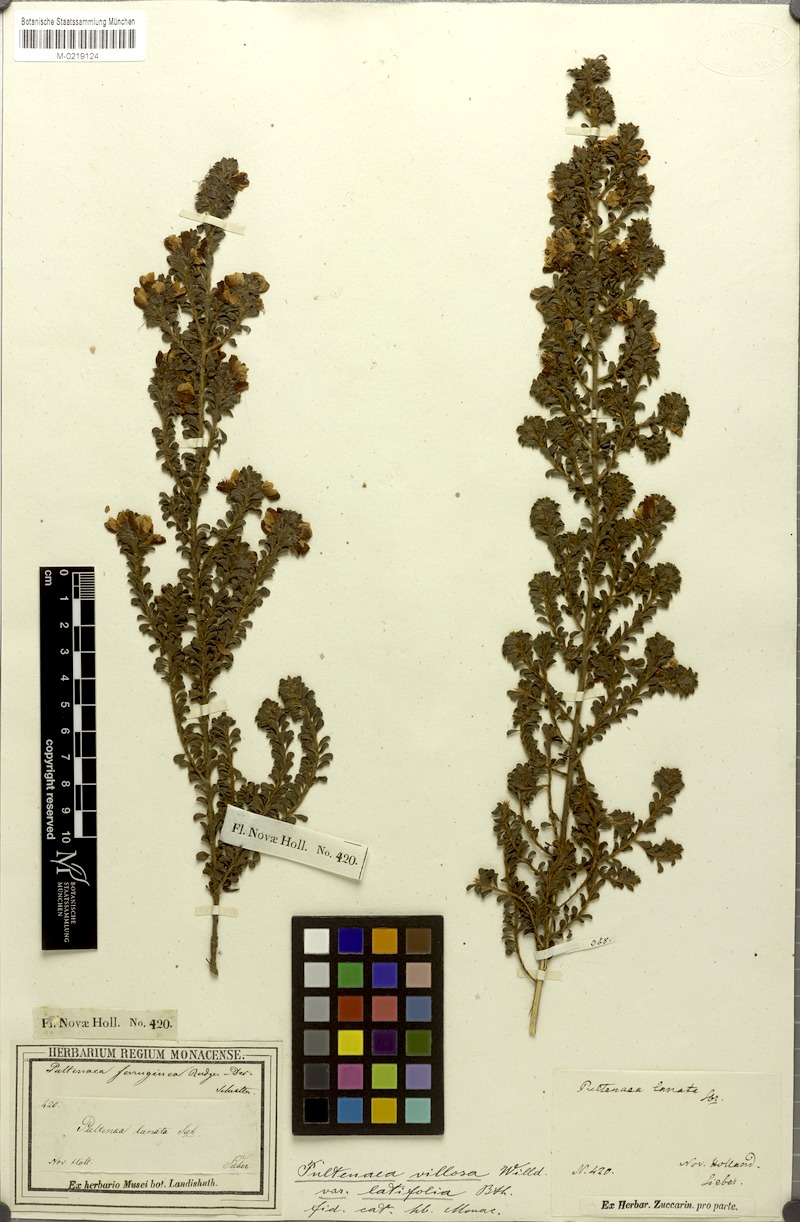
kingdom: Plantae
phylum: Tracheophyta
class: Magnoliopsida
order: Fabales
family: Fabaceae
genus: Pultenaea
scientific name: Pultenaea villosa
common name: Bronze bush-pea
